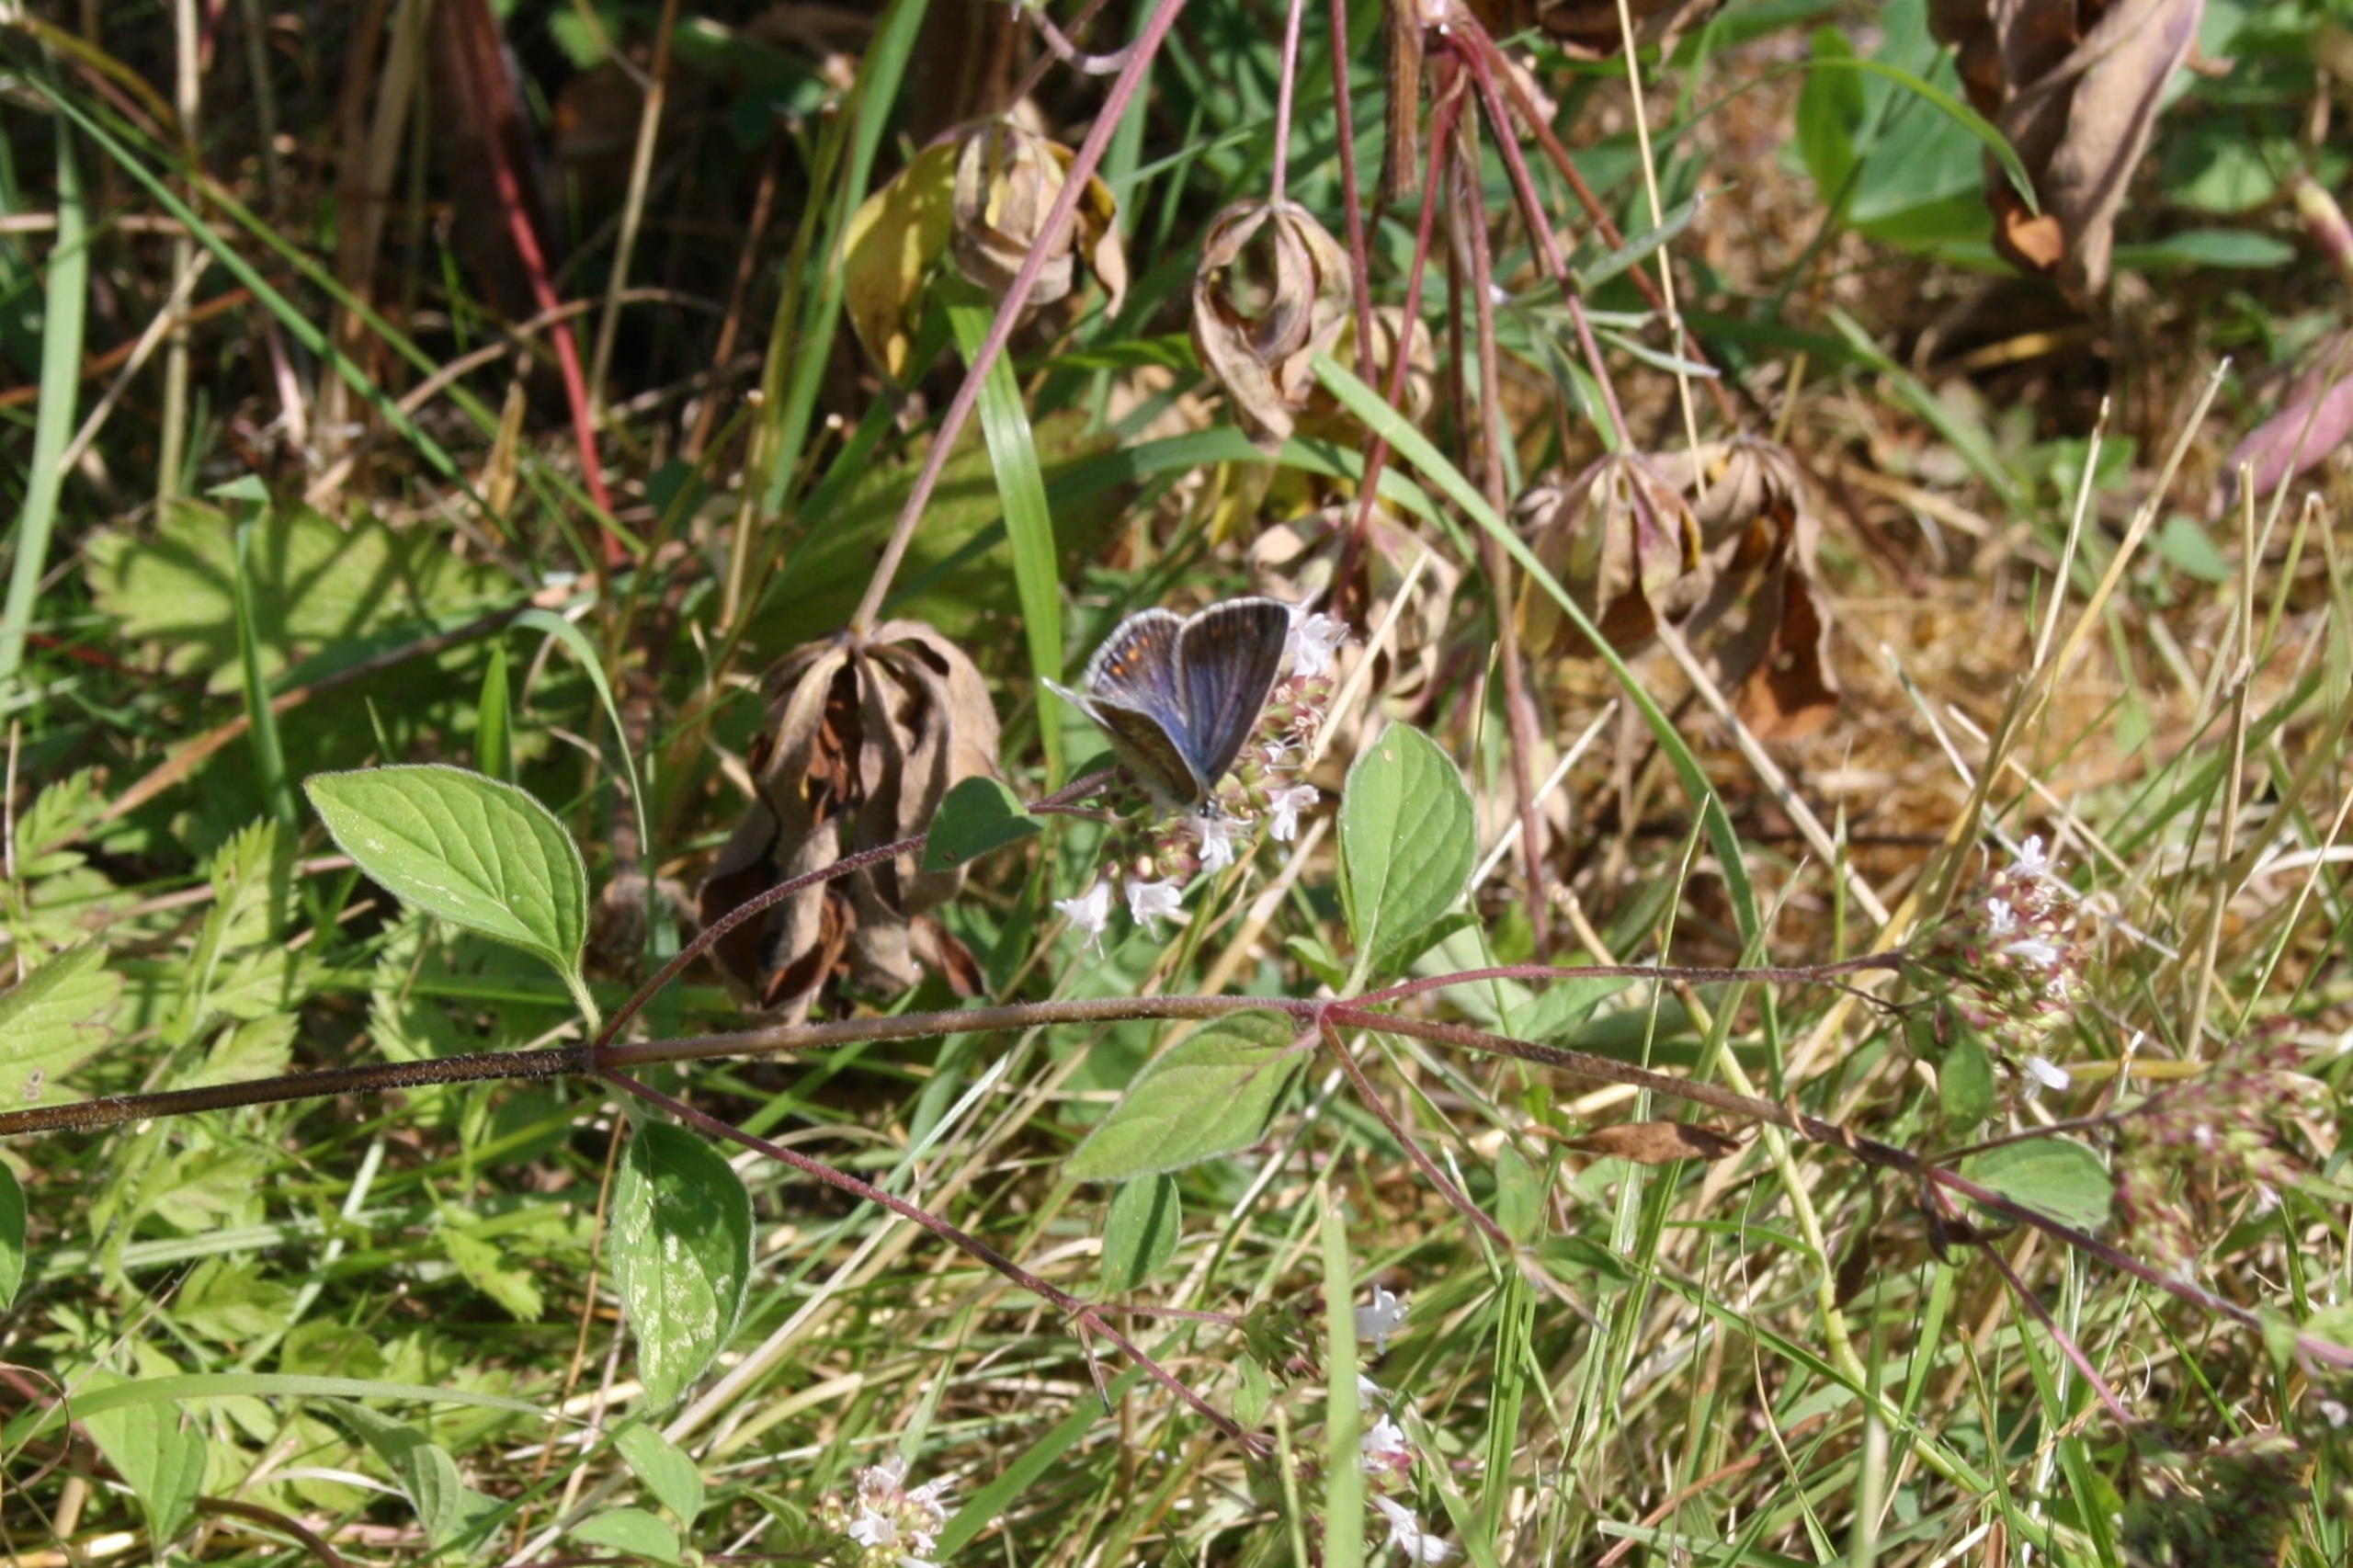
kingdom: Animalia
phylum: Arthropoda
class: Insecta
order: Lepidoptera
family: Lycaenidae
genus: Polyommatus
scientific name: Polyommatus icarus
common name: Almindelig blåfugl
